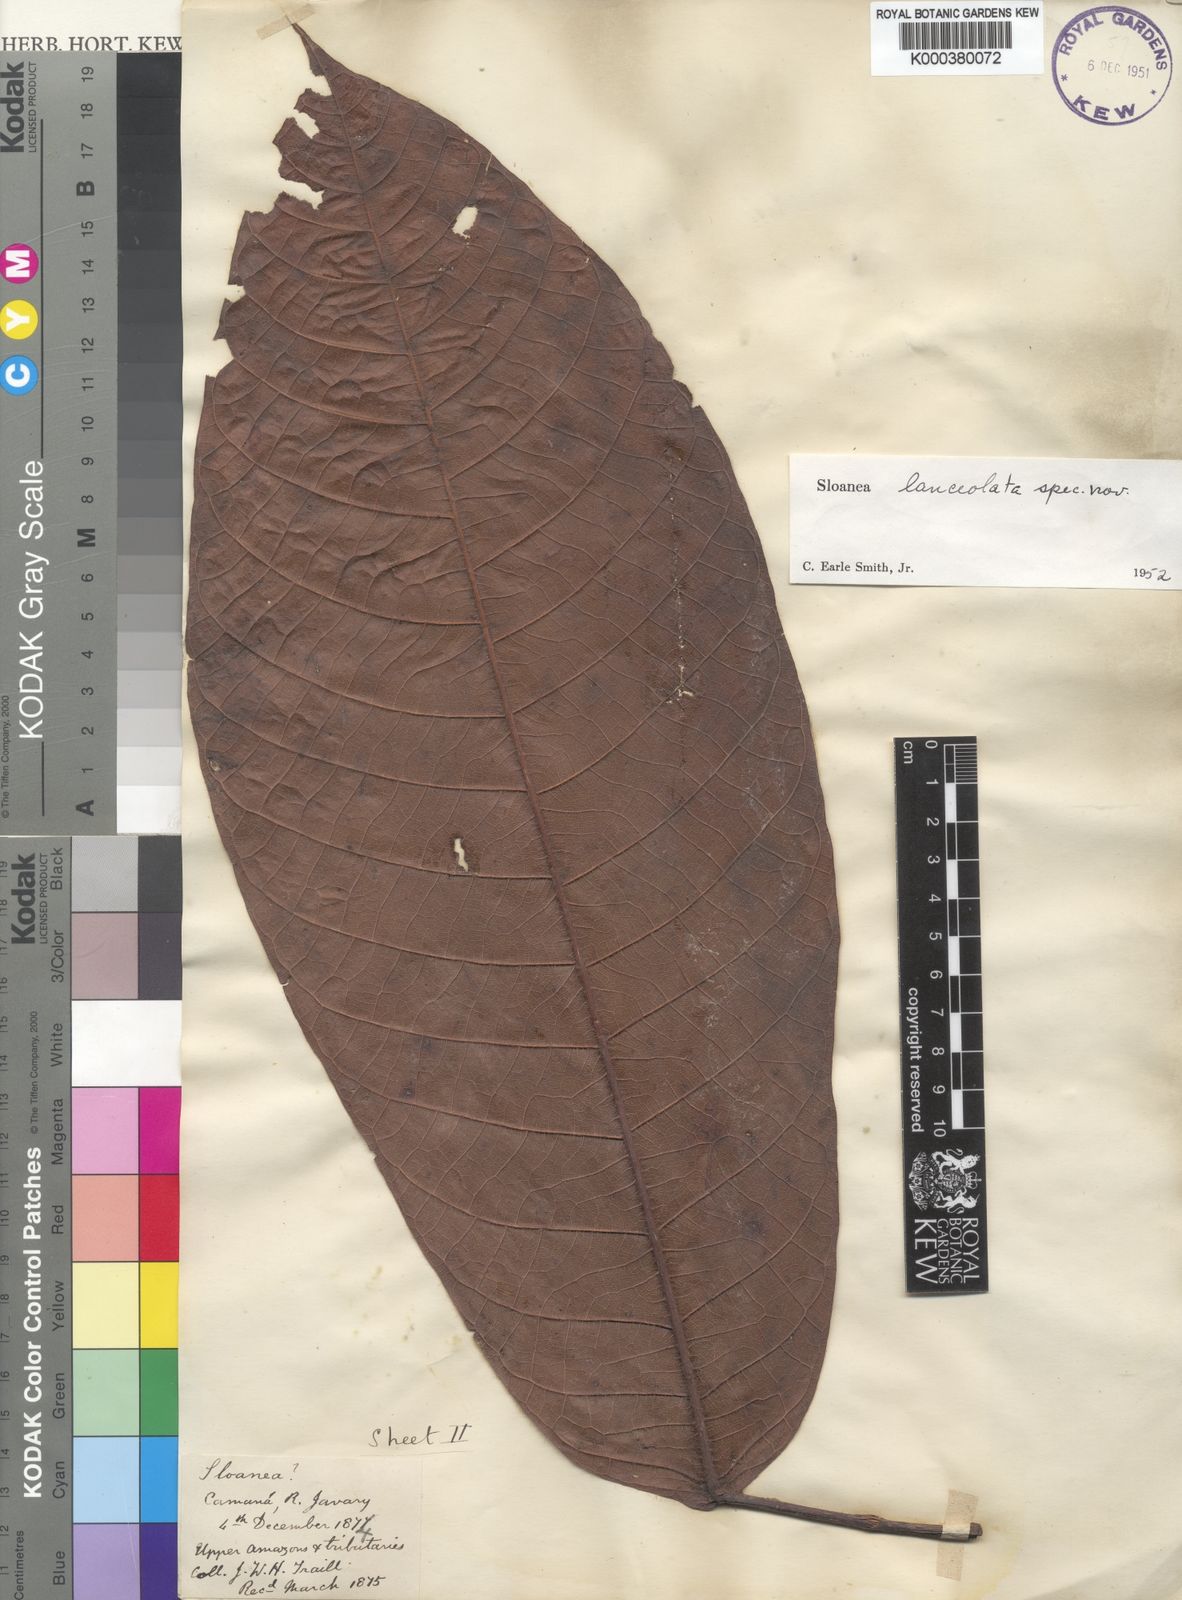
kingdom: Plantae
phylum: Tracheophyta
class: Magnoliopsida
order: Oxalidales
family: Elaeocarpaceae
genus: Sloanea
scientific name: Sloanea lanceolata
